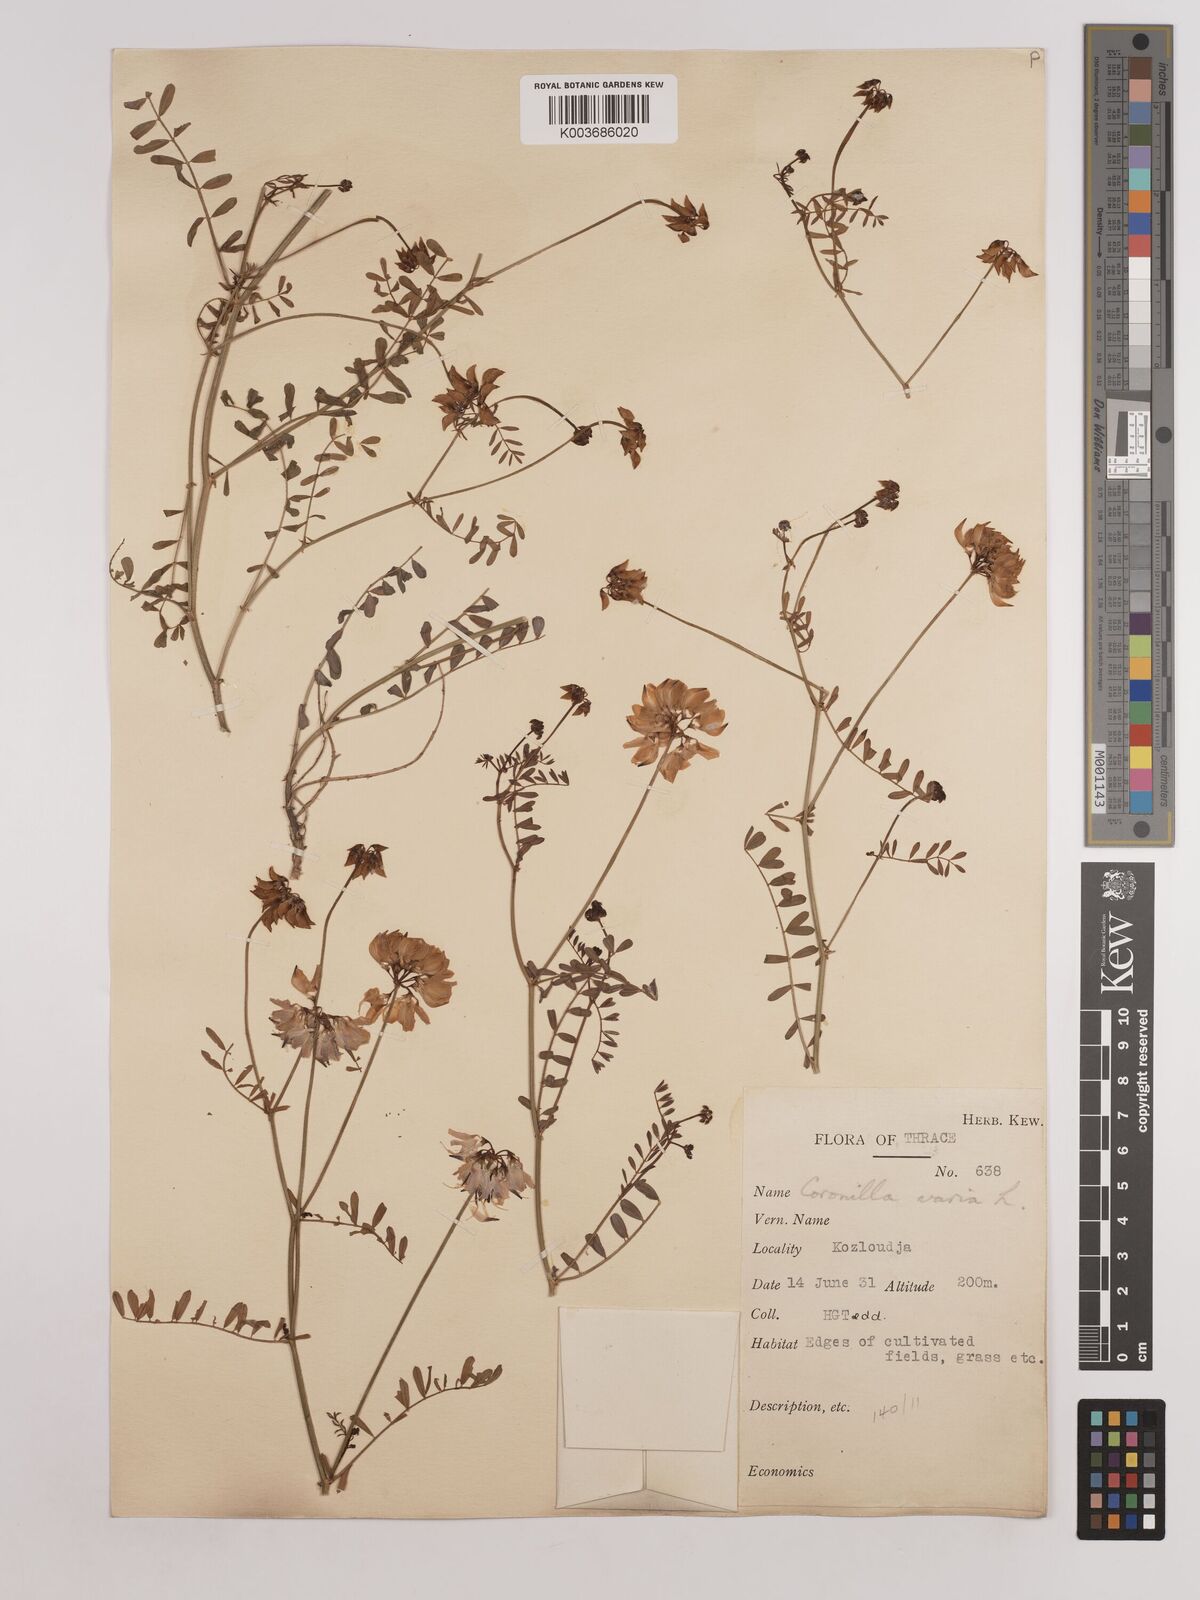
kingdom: Plantae
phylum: Tracheophyta
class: Magnoliopsida
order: Fabales
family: Fabaceae
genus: Coronilla
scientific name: Coronilla varia
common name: Crownvetch
